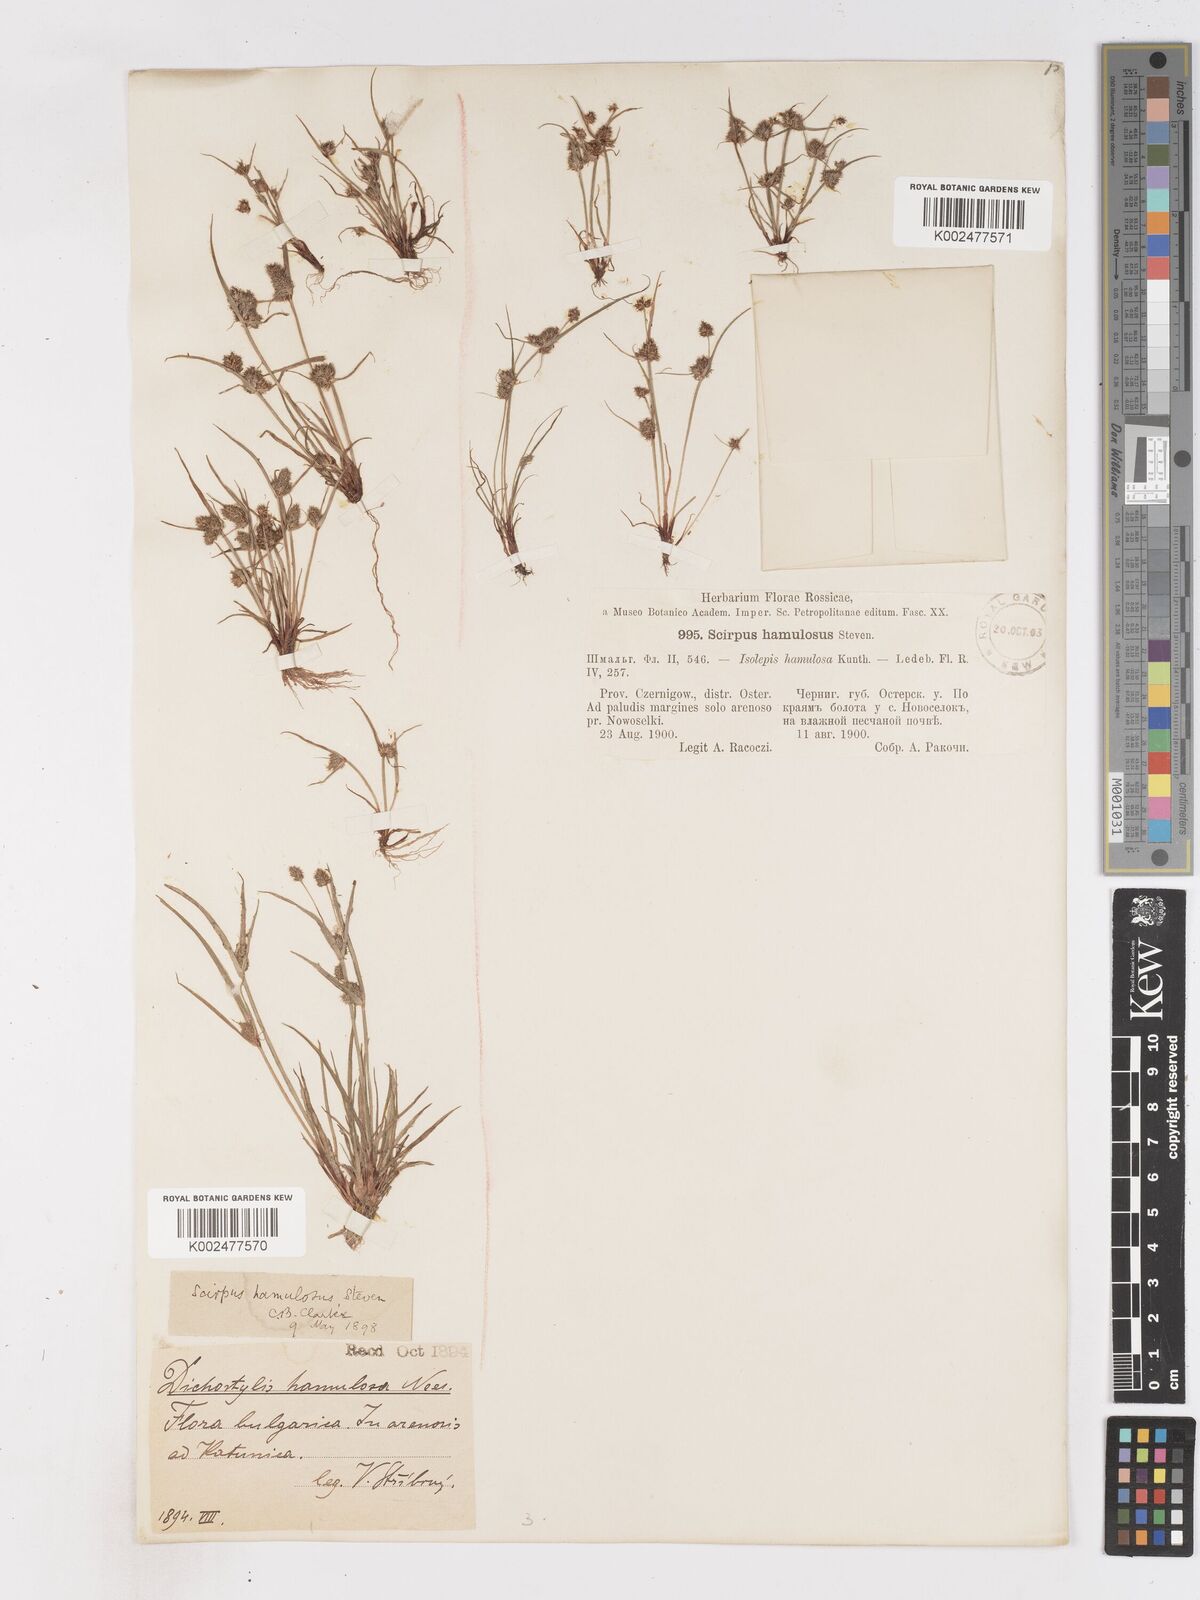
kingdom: Plantae
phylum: Tracheophyta
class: Liliopsida
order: Poales
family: Cyperaceae
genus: Cyperus
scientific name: Cyperus hamulosus
